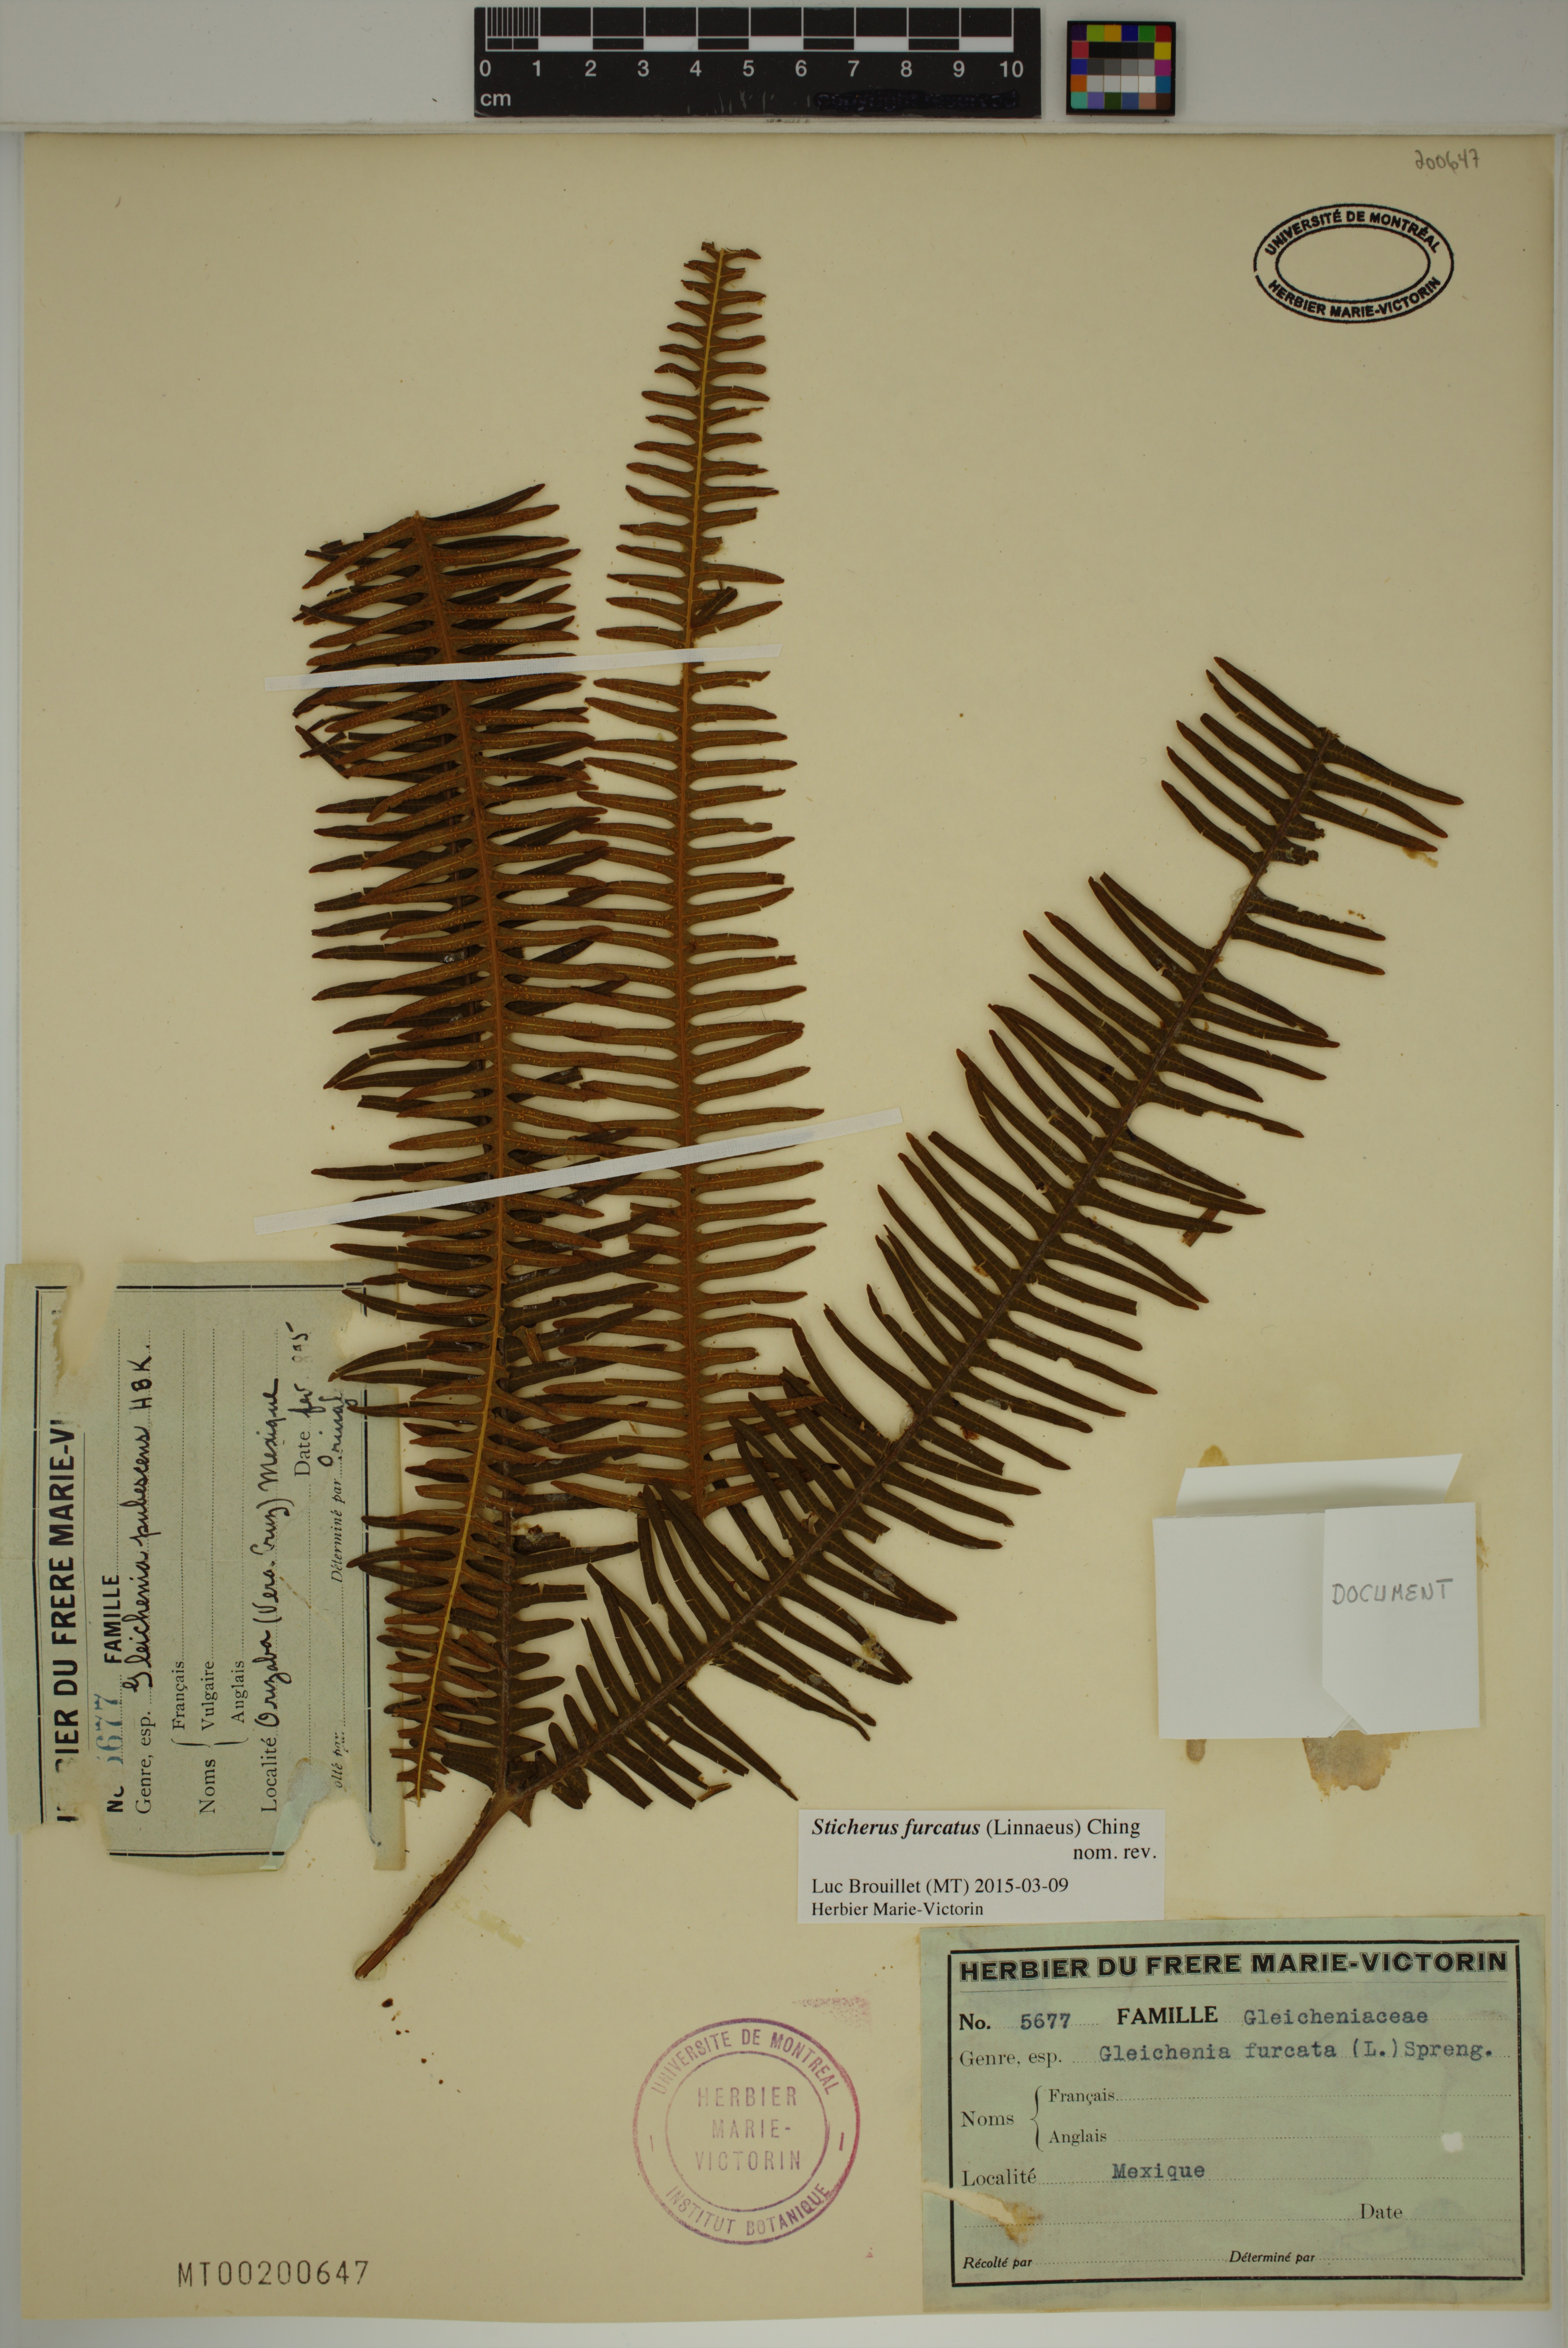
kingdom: Plantae
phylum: Tracheophyta
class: Polypodiopsida
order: Gleicheniales
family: Gleicheniaceae
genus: Sticherus
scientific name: Sticherus furcatus
